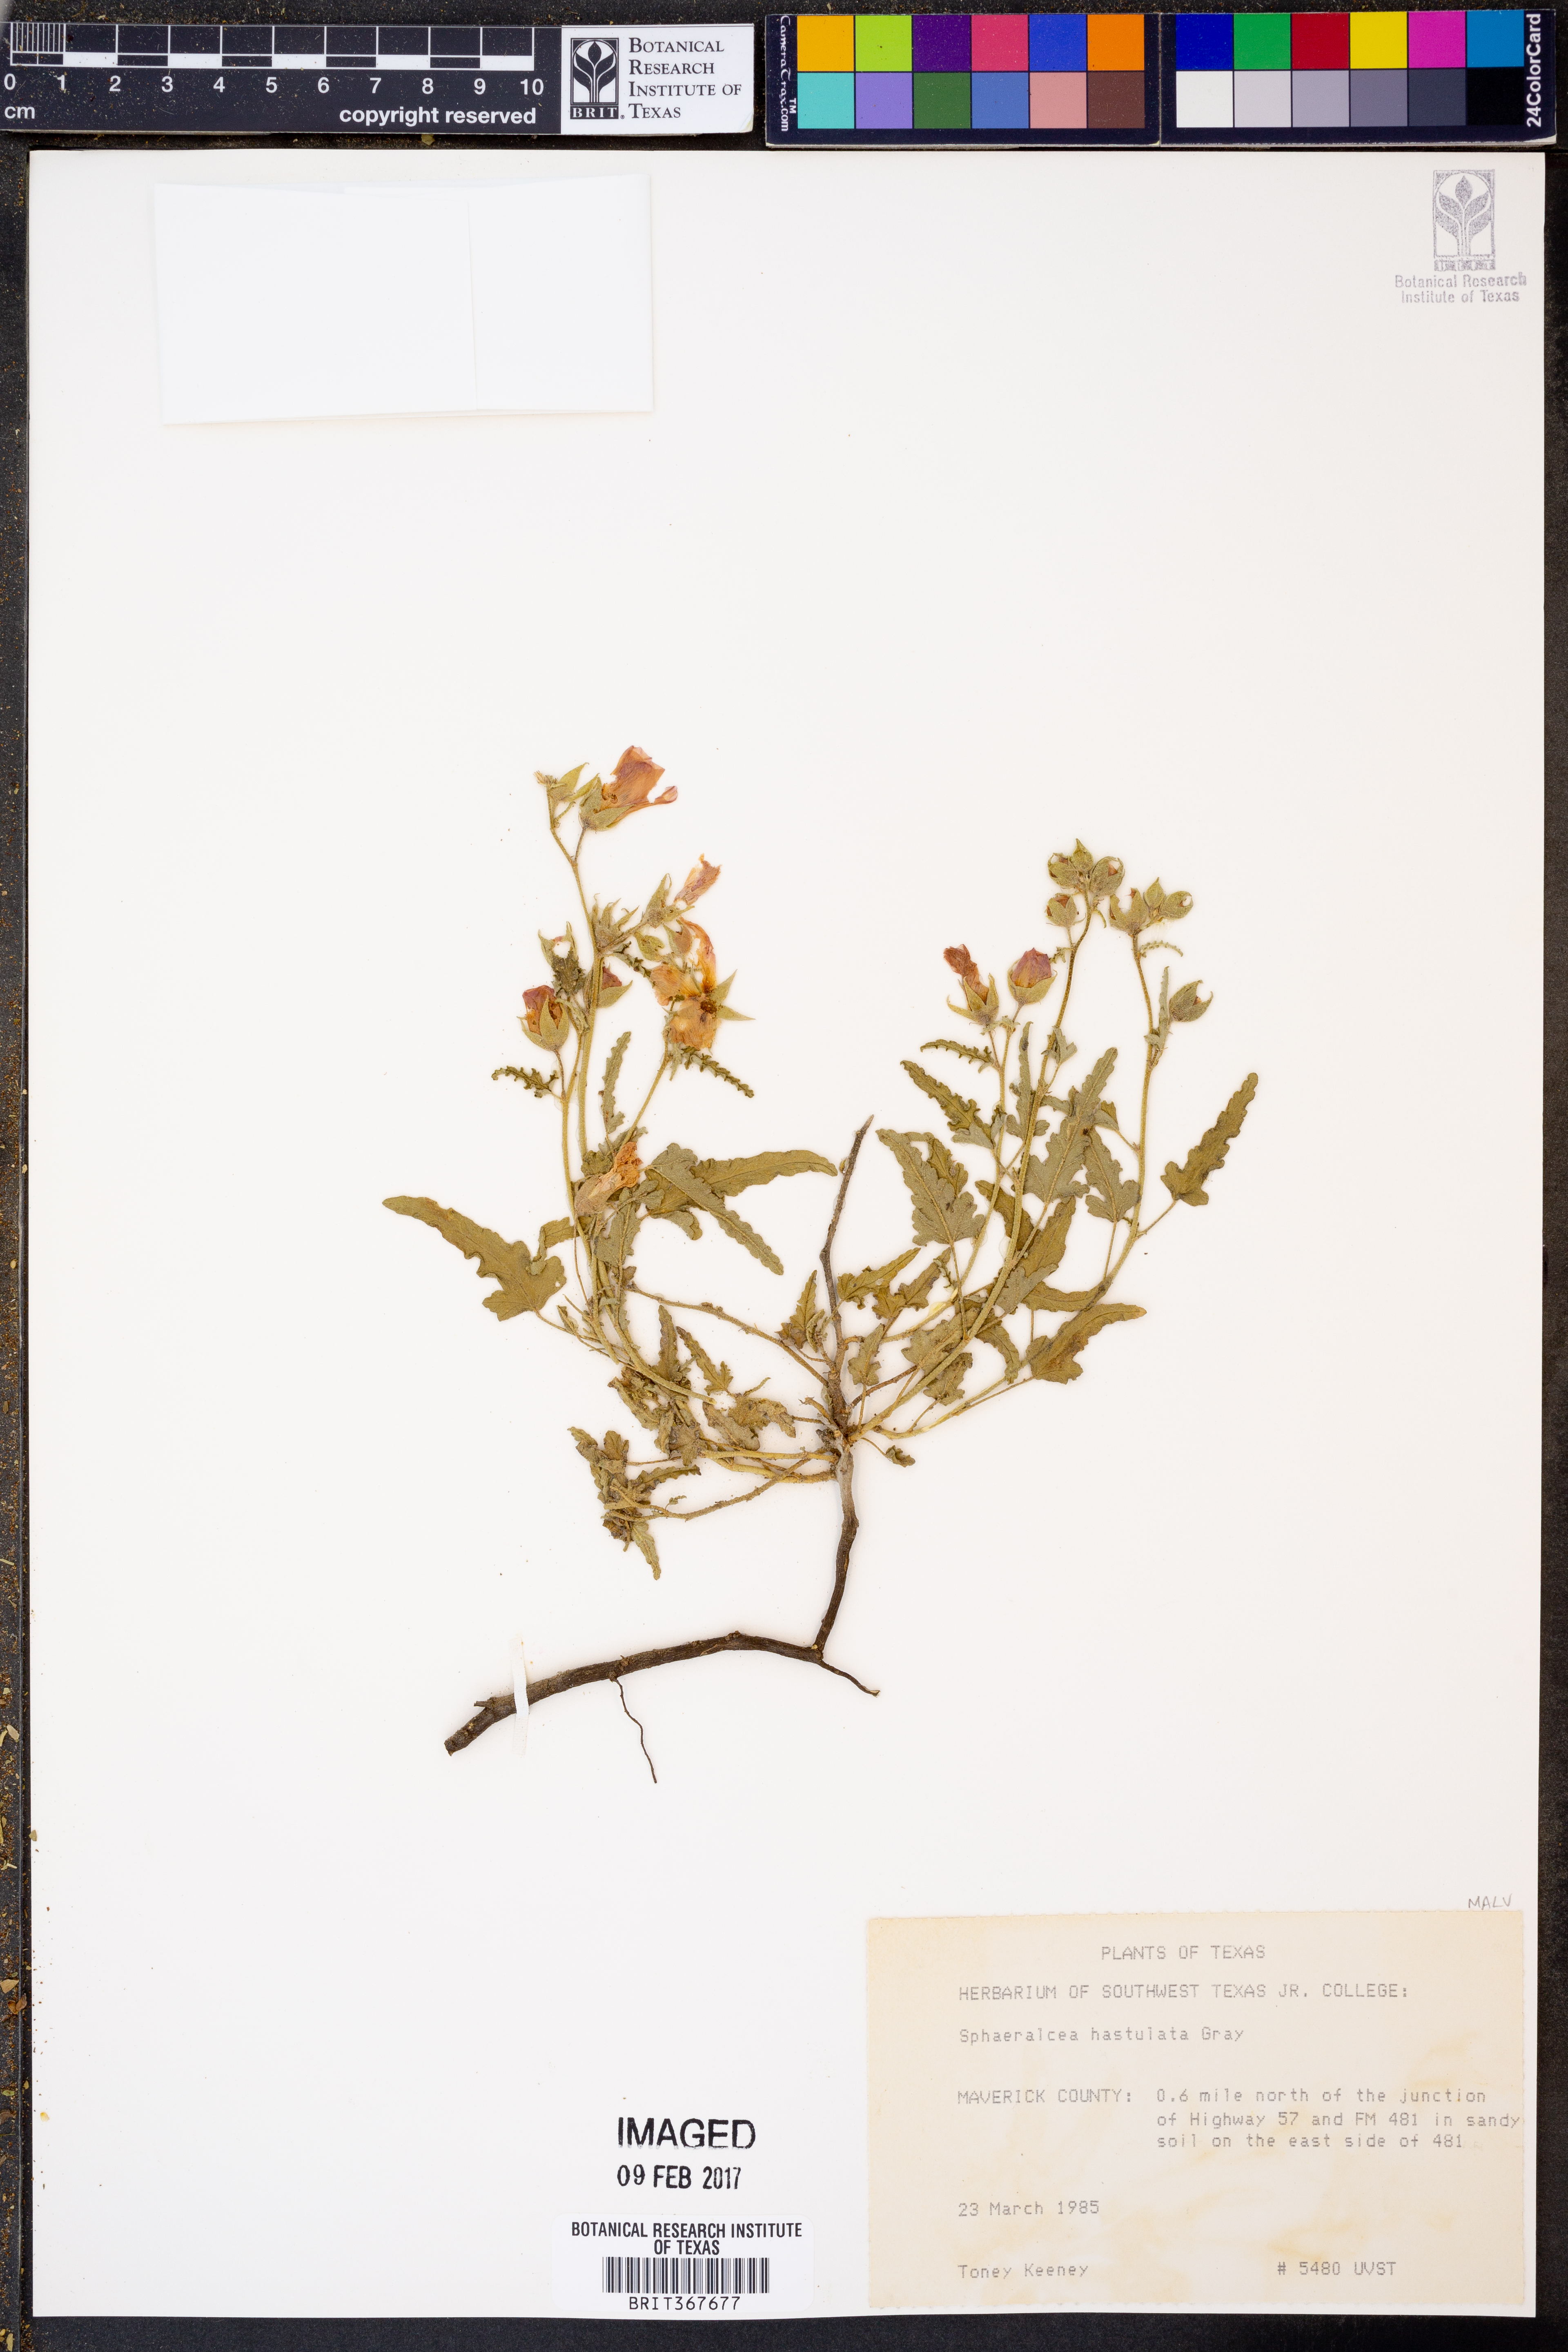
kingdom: Plantae
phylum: Tracheophyta
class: Magnoliopsida
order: Malvales
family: Malvaceae
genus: Sphaeralcea
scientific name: Sphaeralcea hastulata
